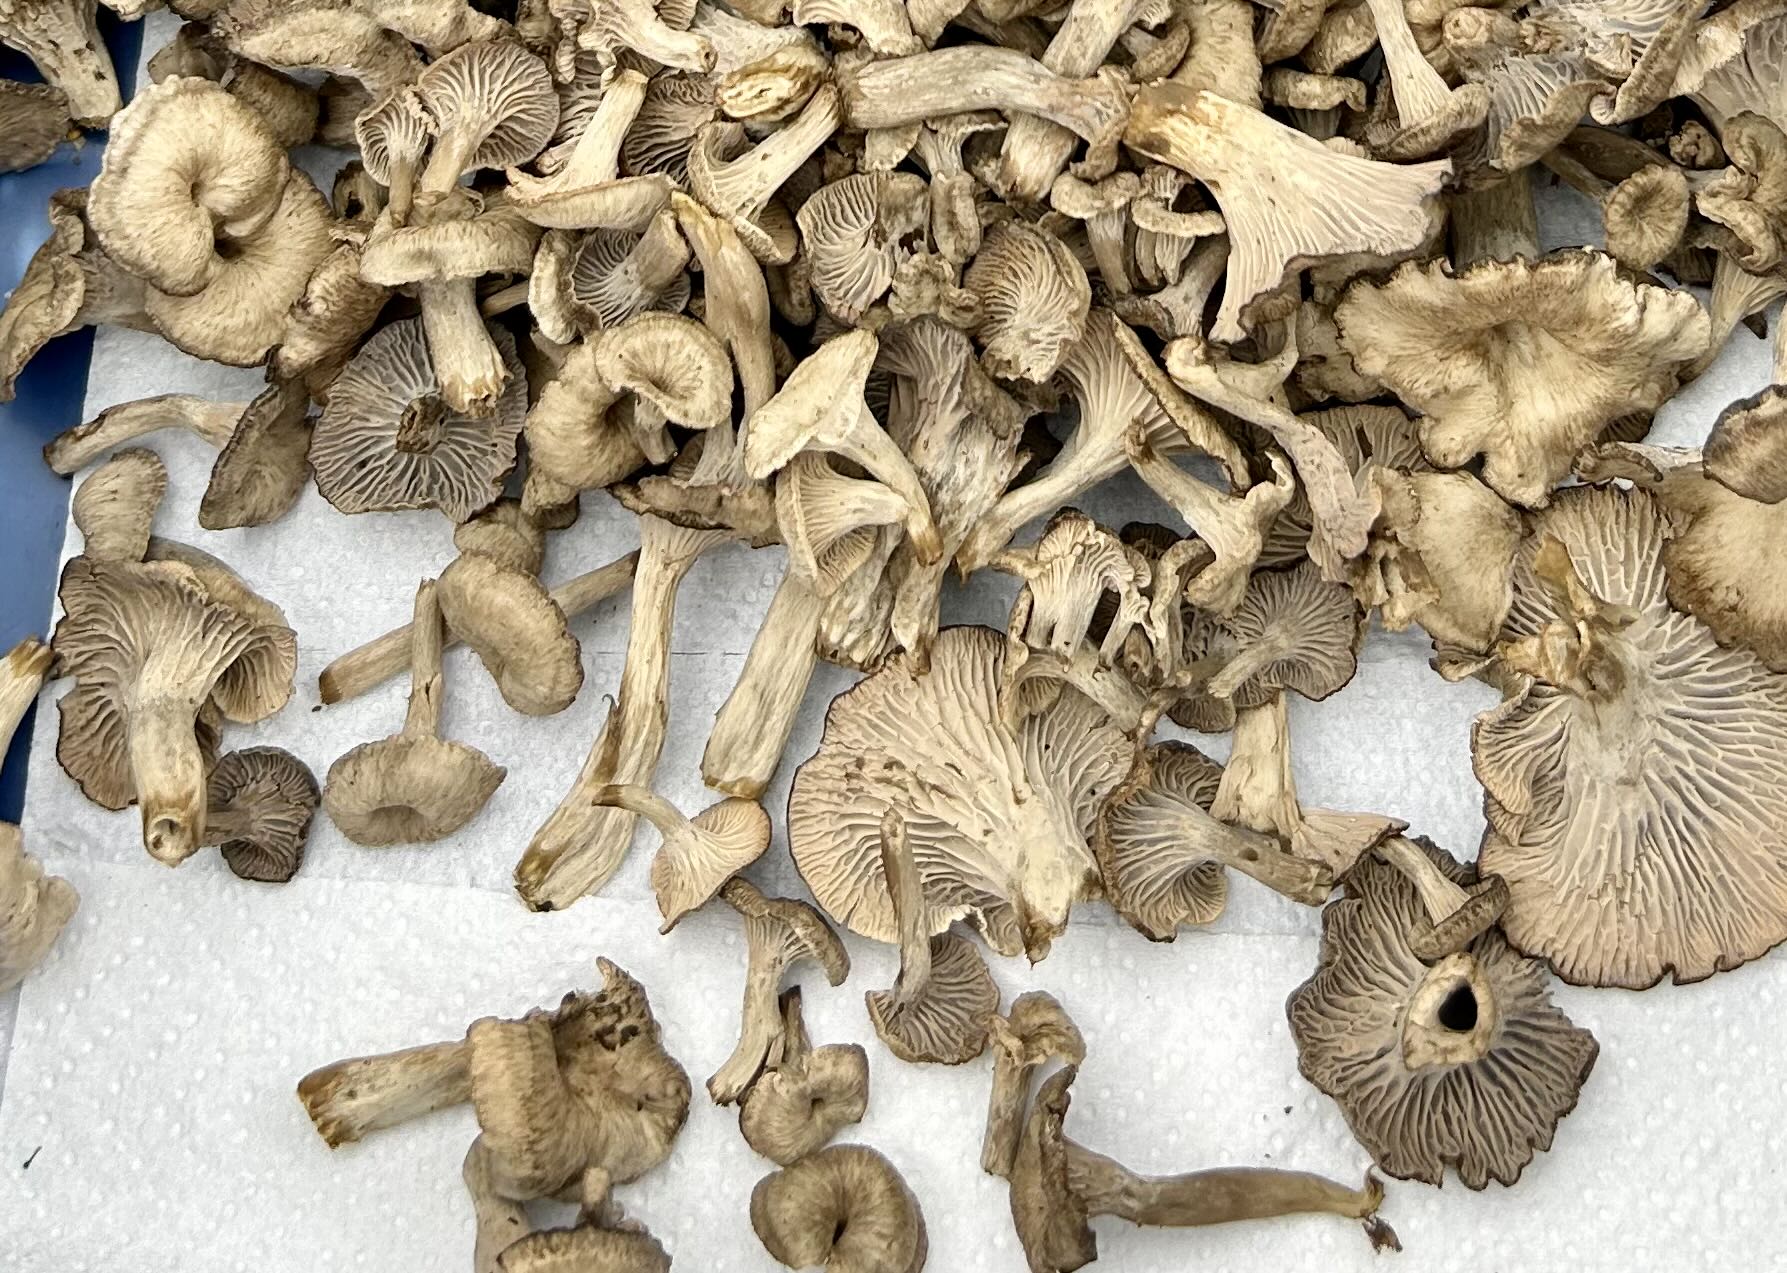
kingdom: Fungi
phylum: Basidiomycota
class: Agaricomycetes
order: Cantharellales
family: Hydnaceae
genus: Cantharellus
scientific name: Cantharellus cinereus
